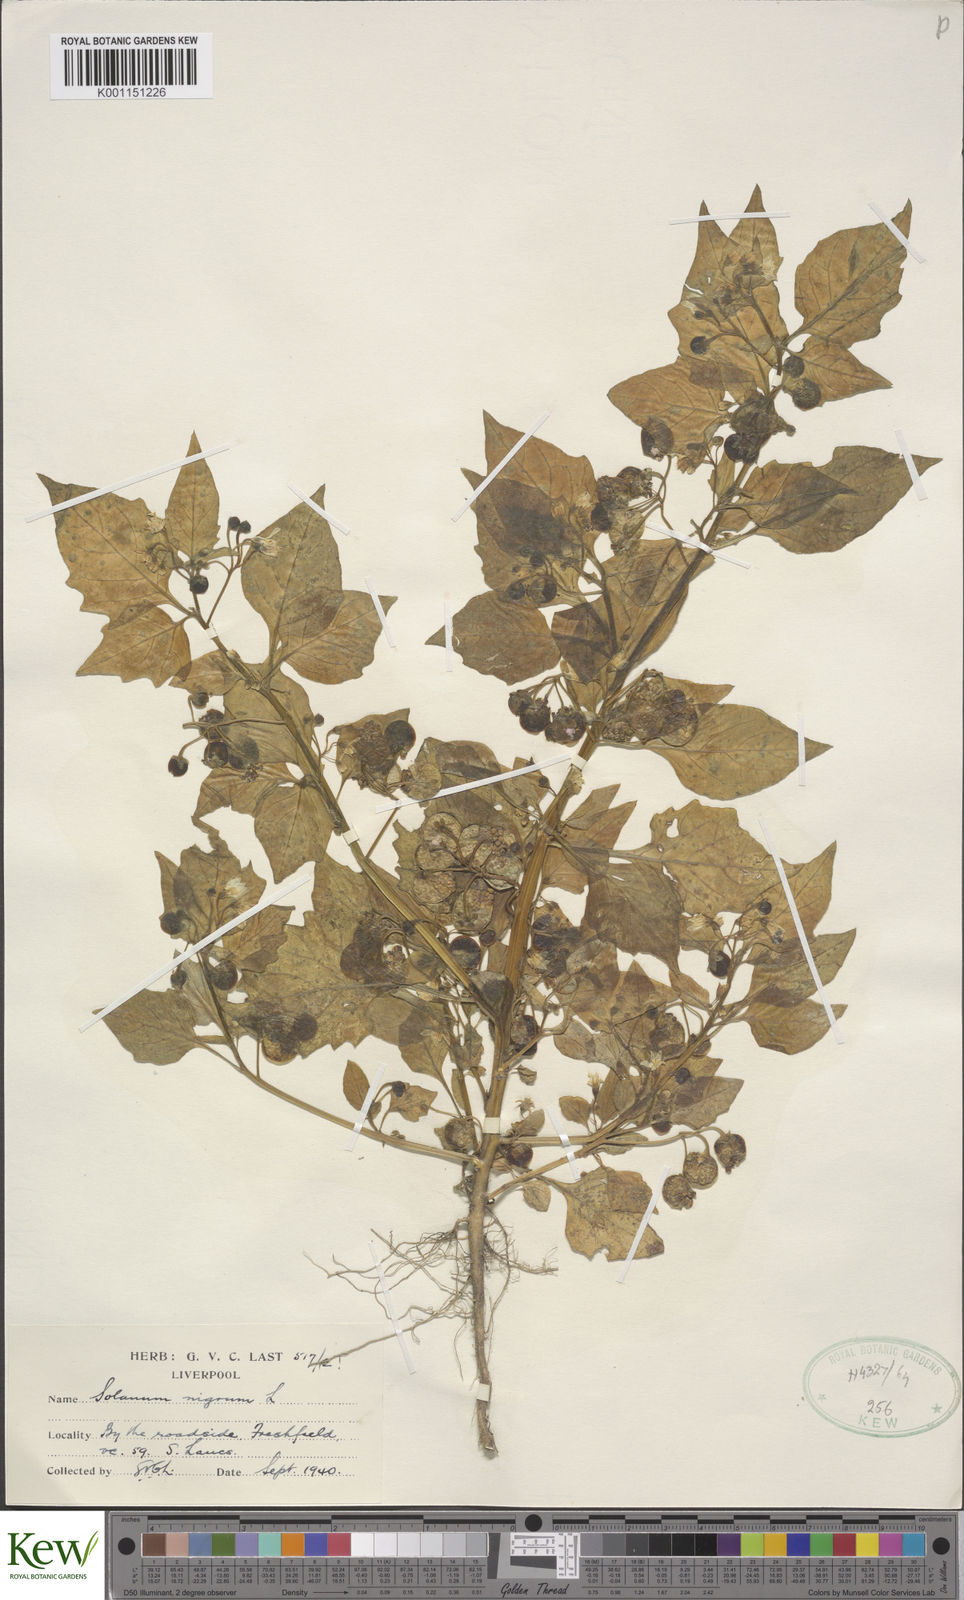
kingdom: Plantae
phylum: Tracheophyta
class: Magnoliopsida
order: Solanales
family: Solanaceae
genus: Solanum
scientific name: Solanum nigrum
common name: Black nightshade
